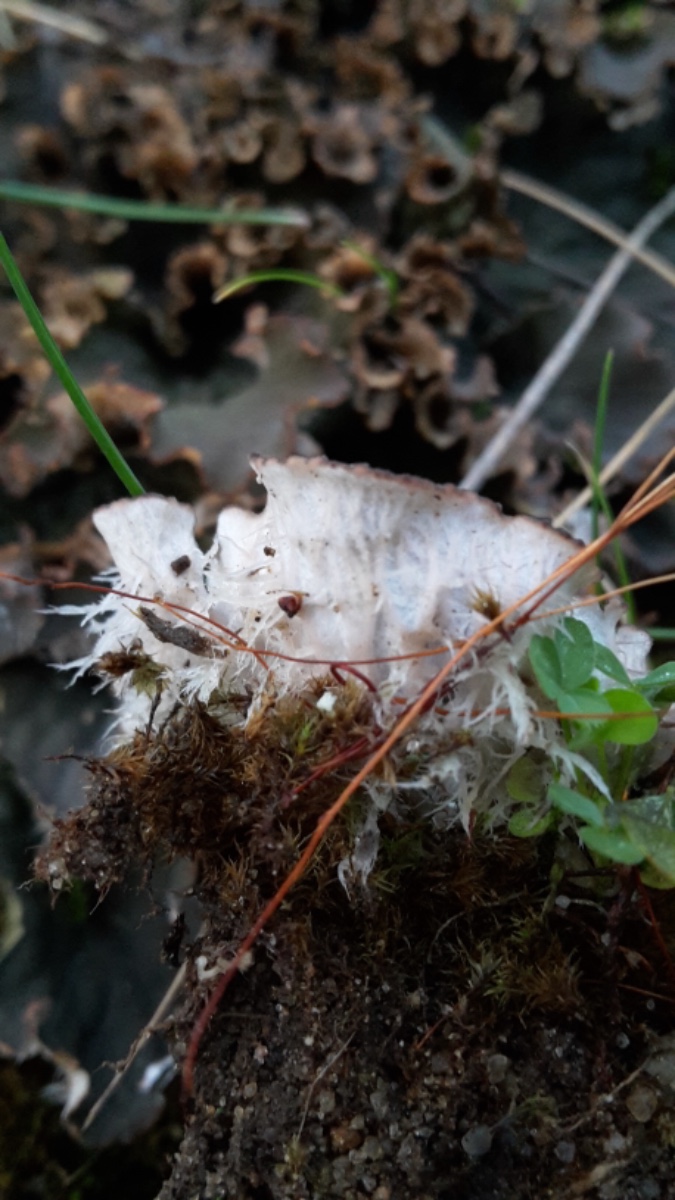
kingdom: Fungi
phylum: Ascomycota
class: Lecanoromycetes
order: Peltigerales
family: Peltigeraceae
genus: Peltigera
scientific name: Peltigera membranacea
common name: tynd skjoldlav
